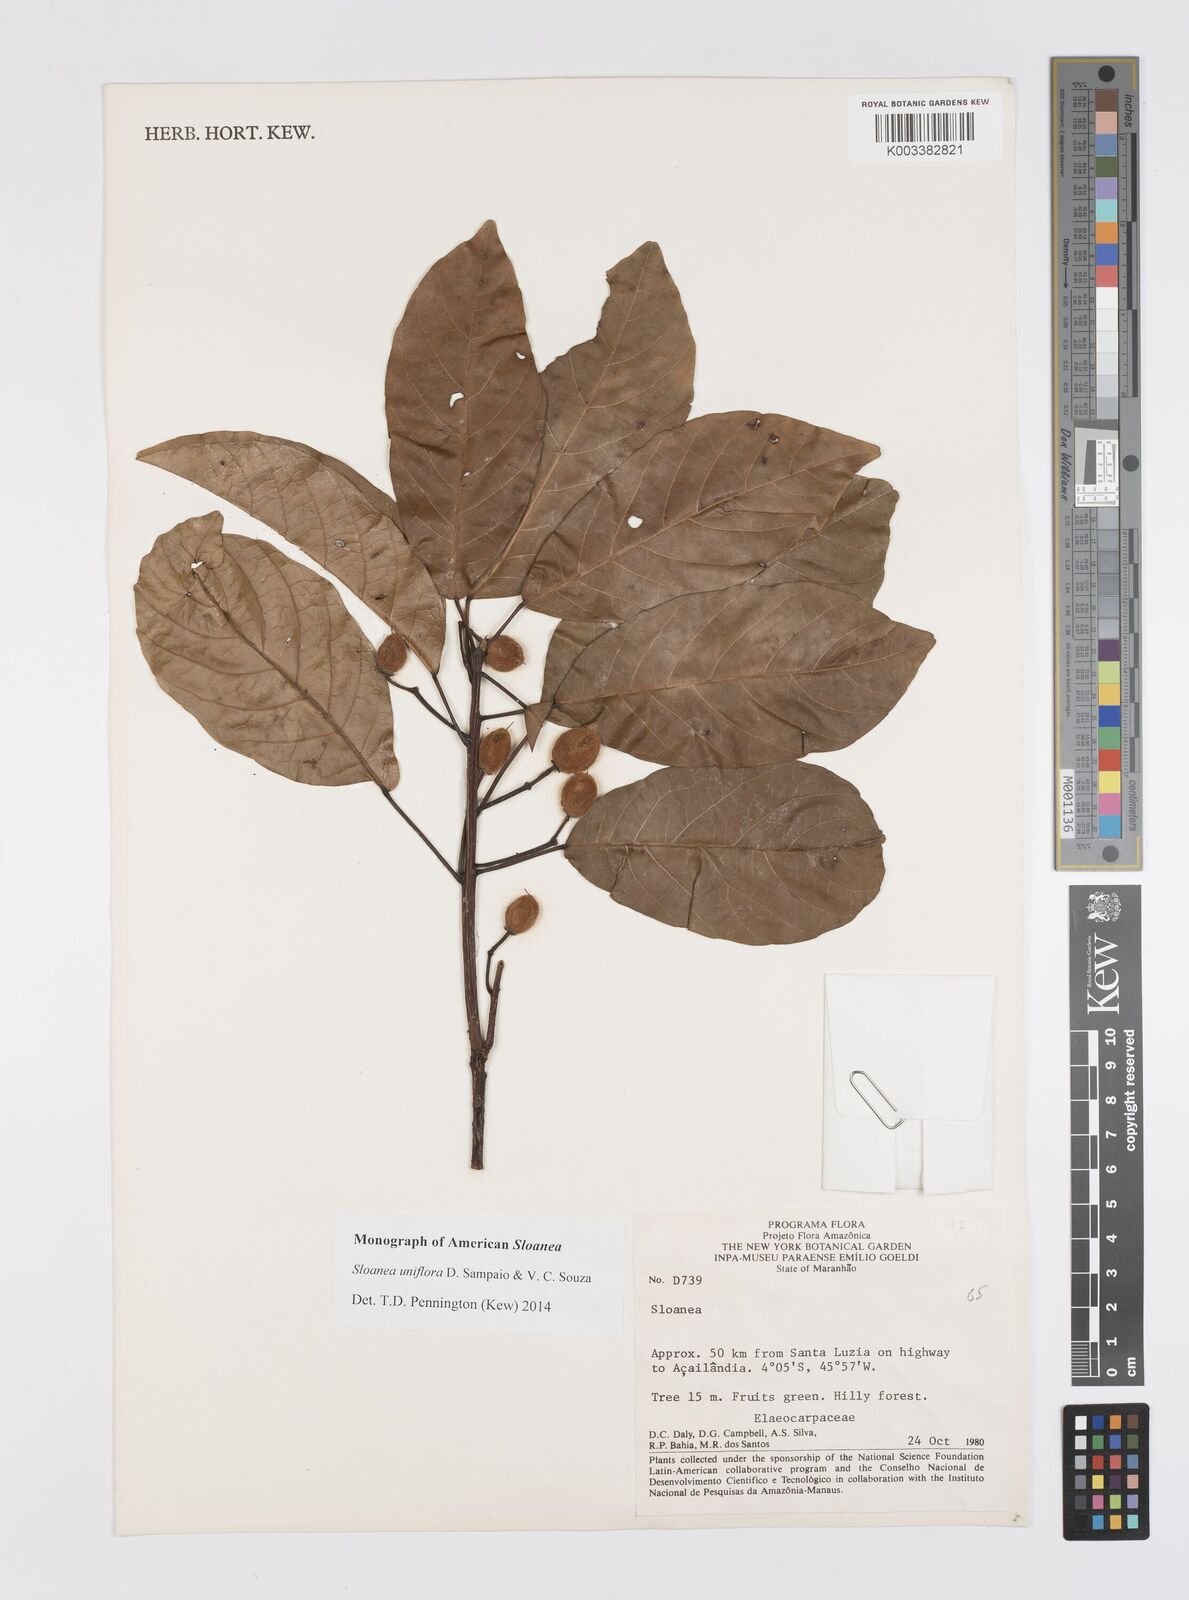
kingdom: Plantae
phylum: Tracheophyta
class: Magnoliopsida
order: Oxalidales
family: Elaeocarpaceae
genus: Sloanea
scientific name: Sloanea uniflora
